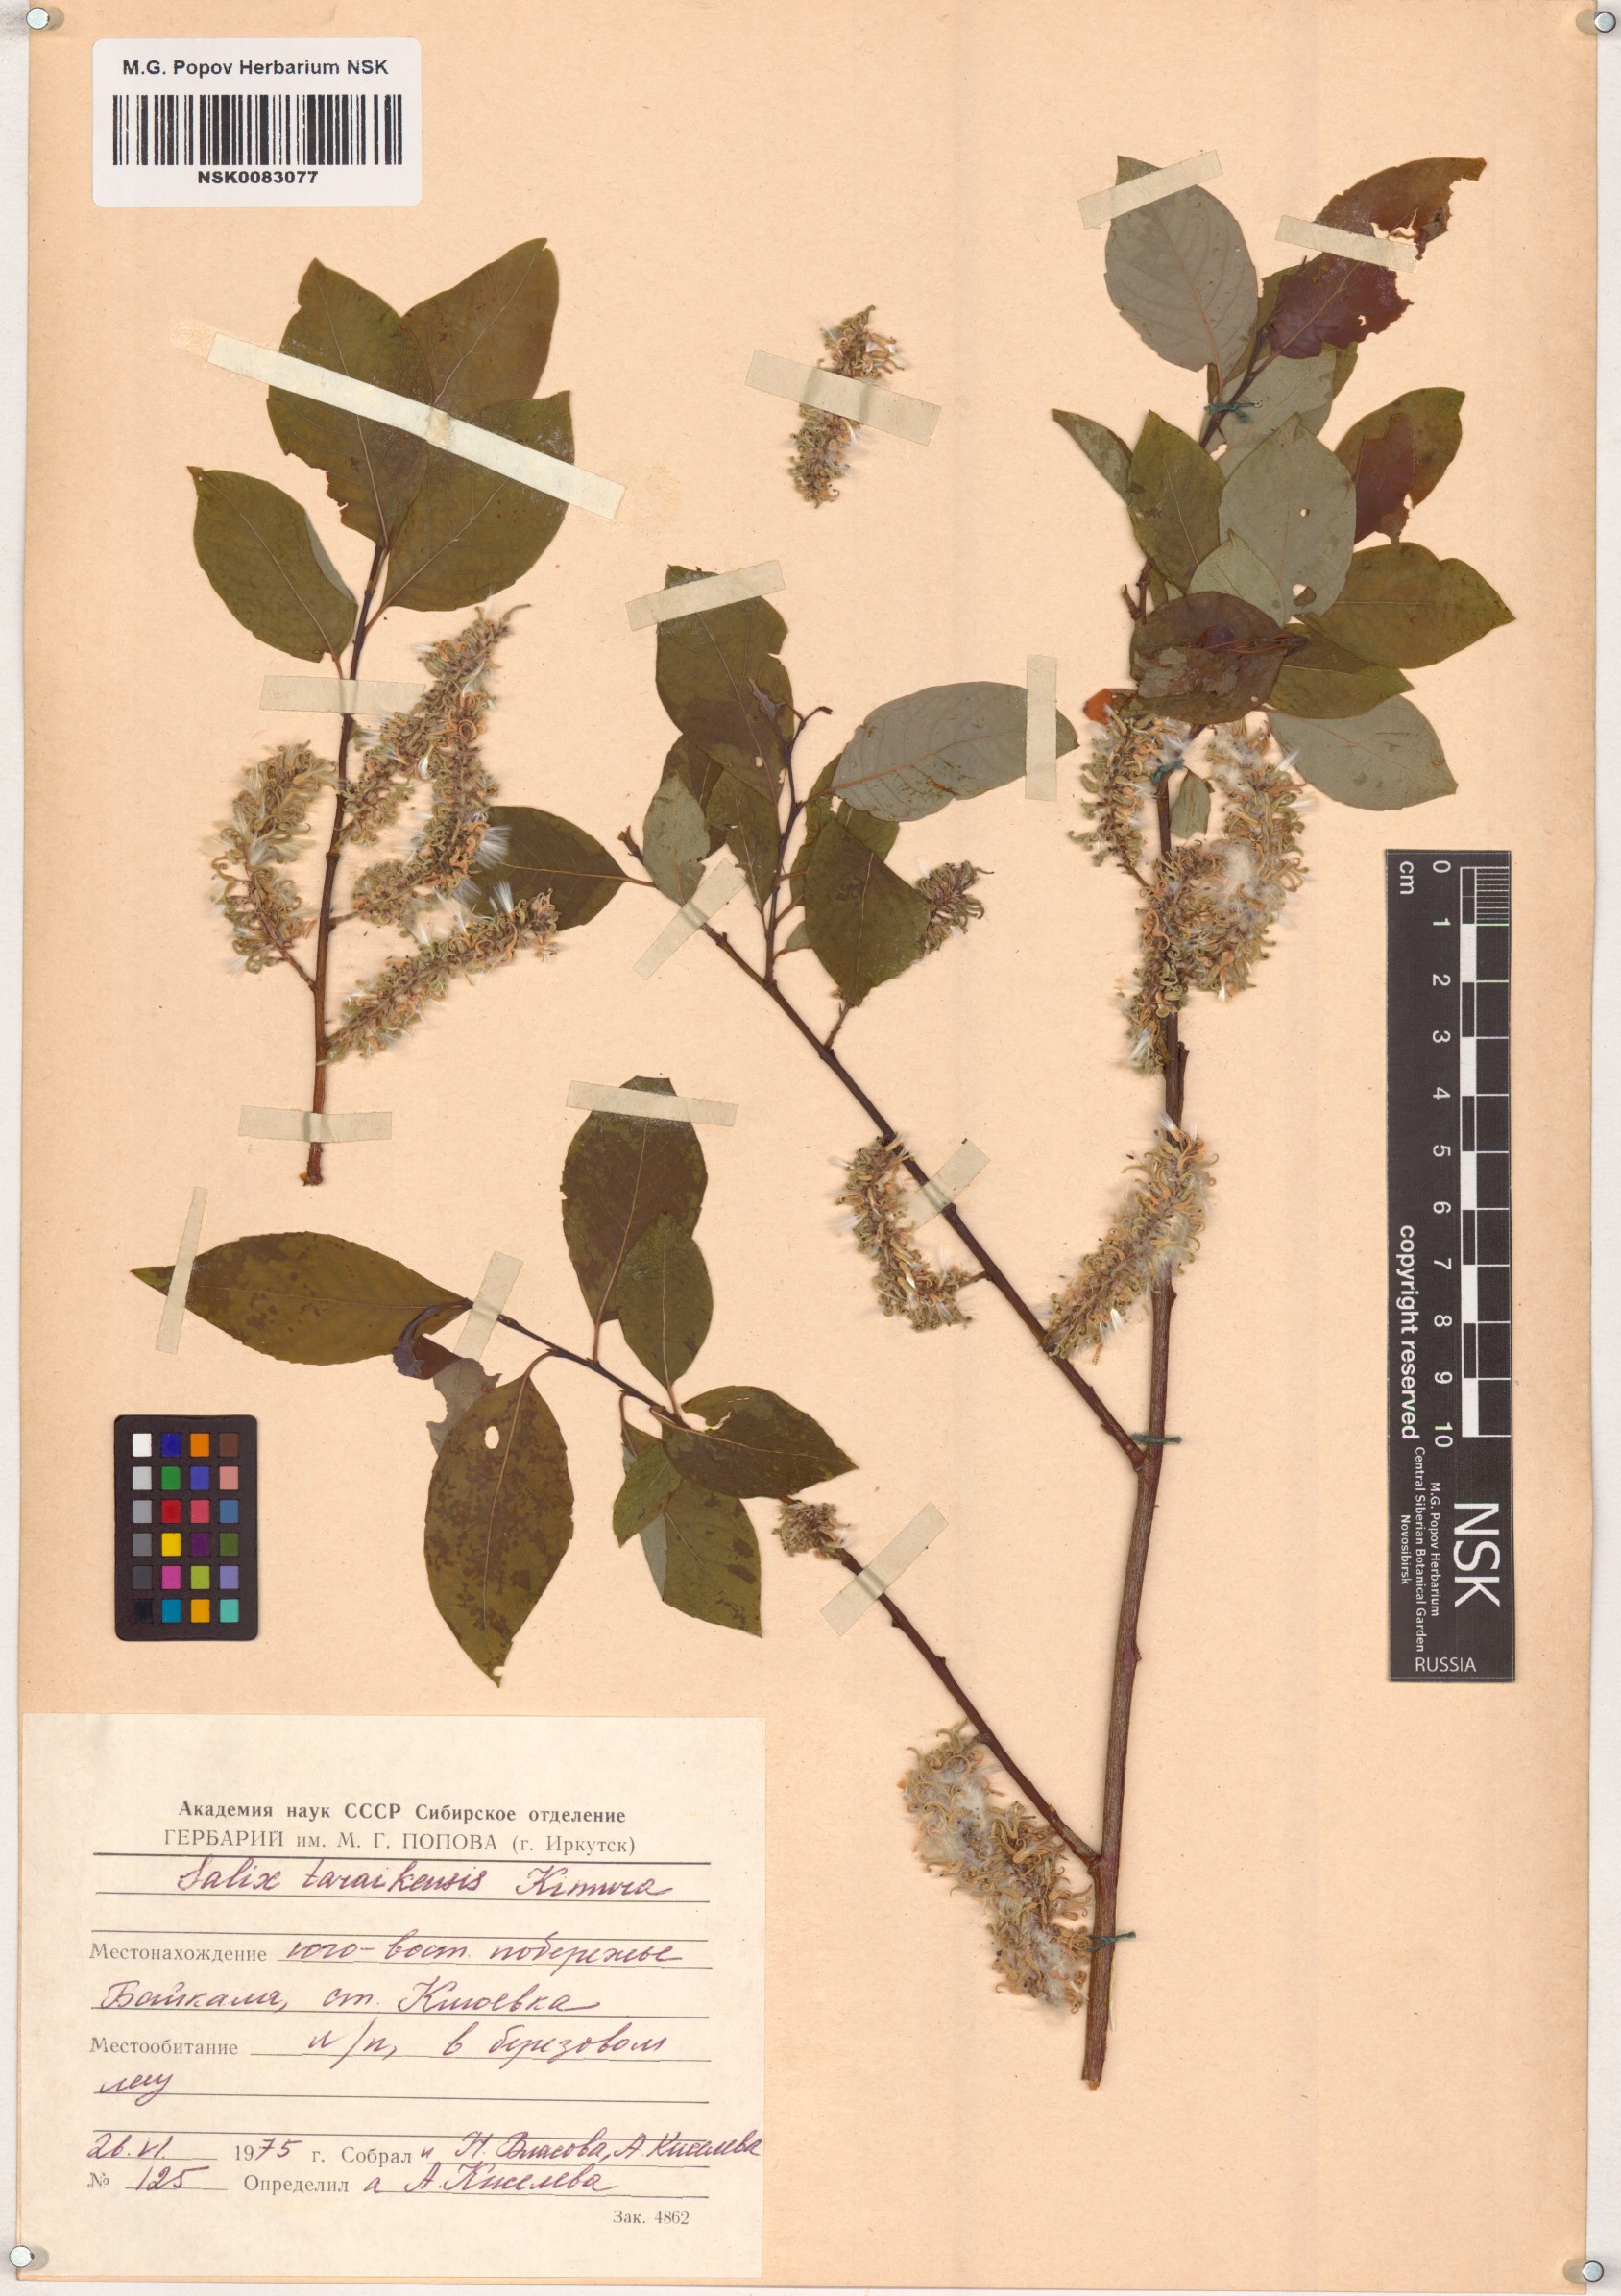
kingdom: Plantae
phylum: Tracheophyta
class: Magnoliopsida
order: Malpighiales
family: Salicaceae
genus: Salix
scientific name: Salix taraikensis
